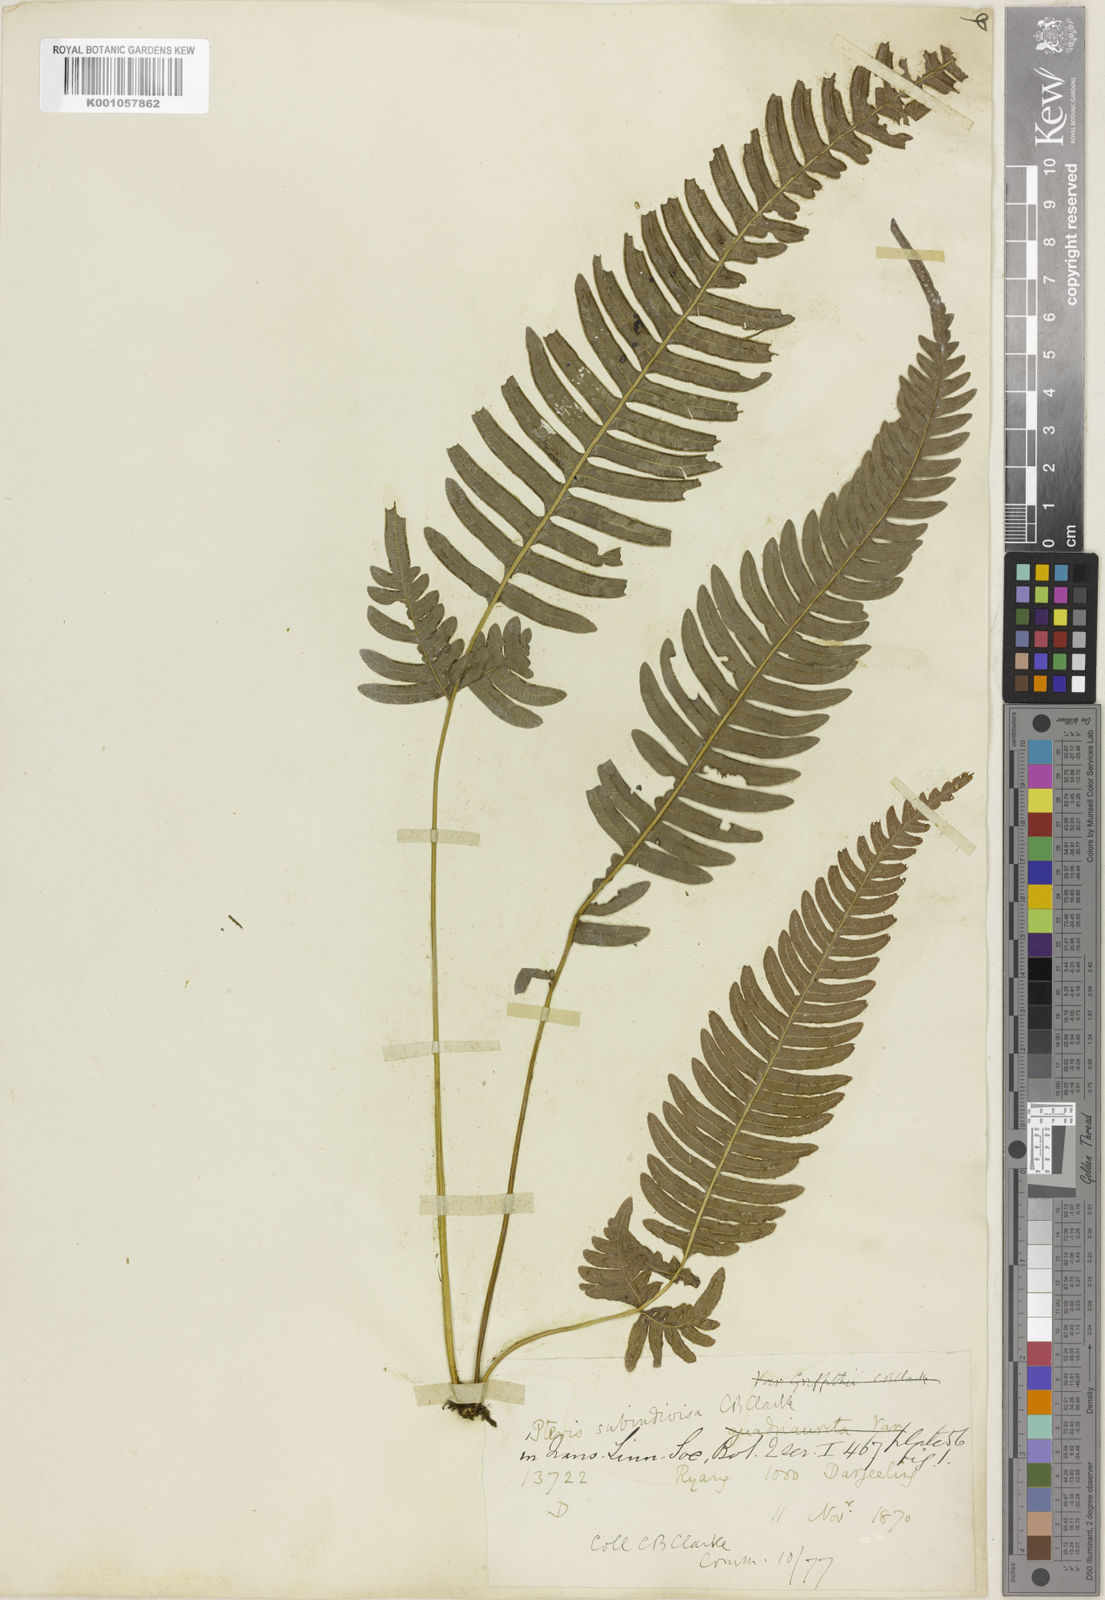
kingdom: Plantae
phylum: Tracheophyta
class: Polypodiopsida
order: Polypodiales
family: Pteridaceae
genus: Pteris
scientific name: Pteris subindivisa
